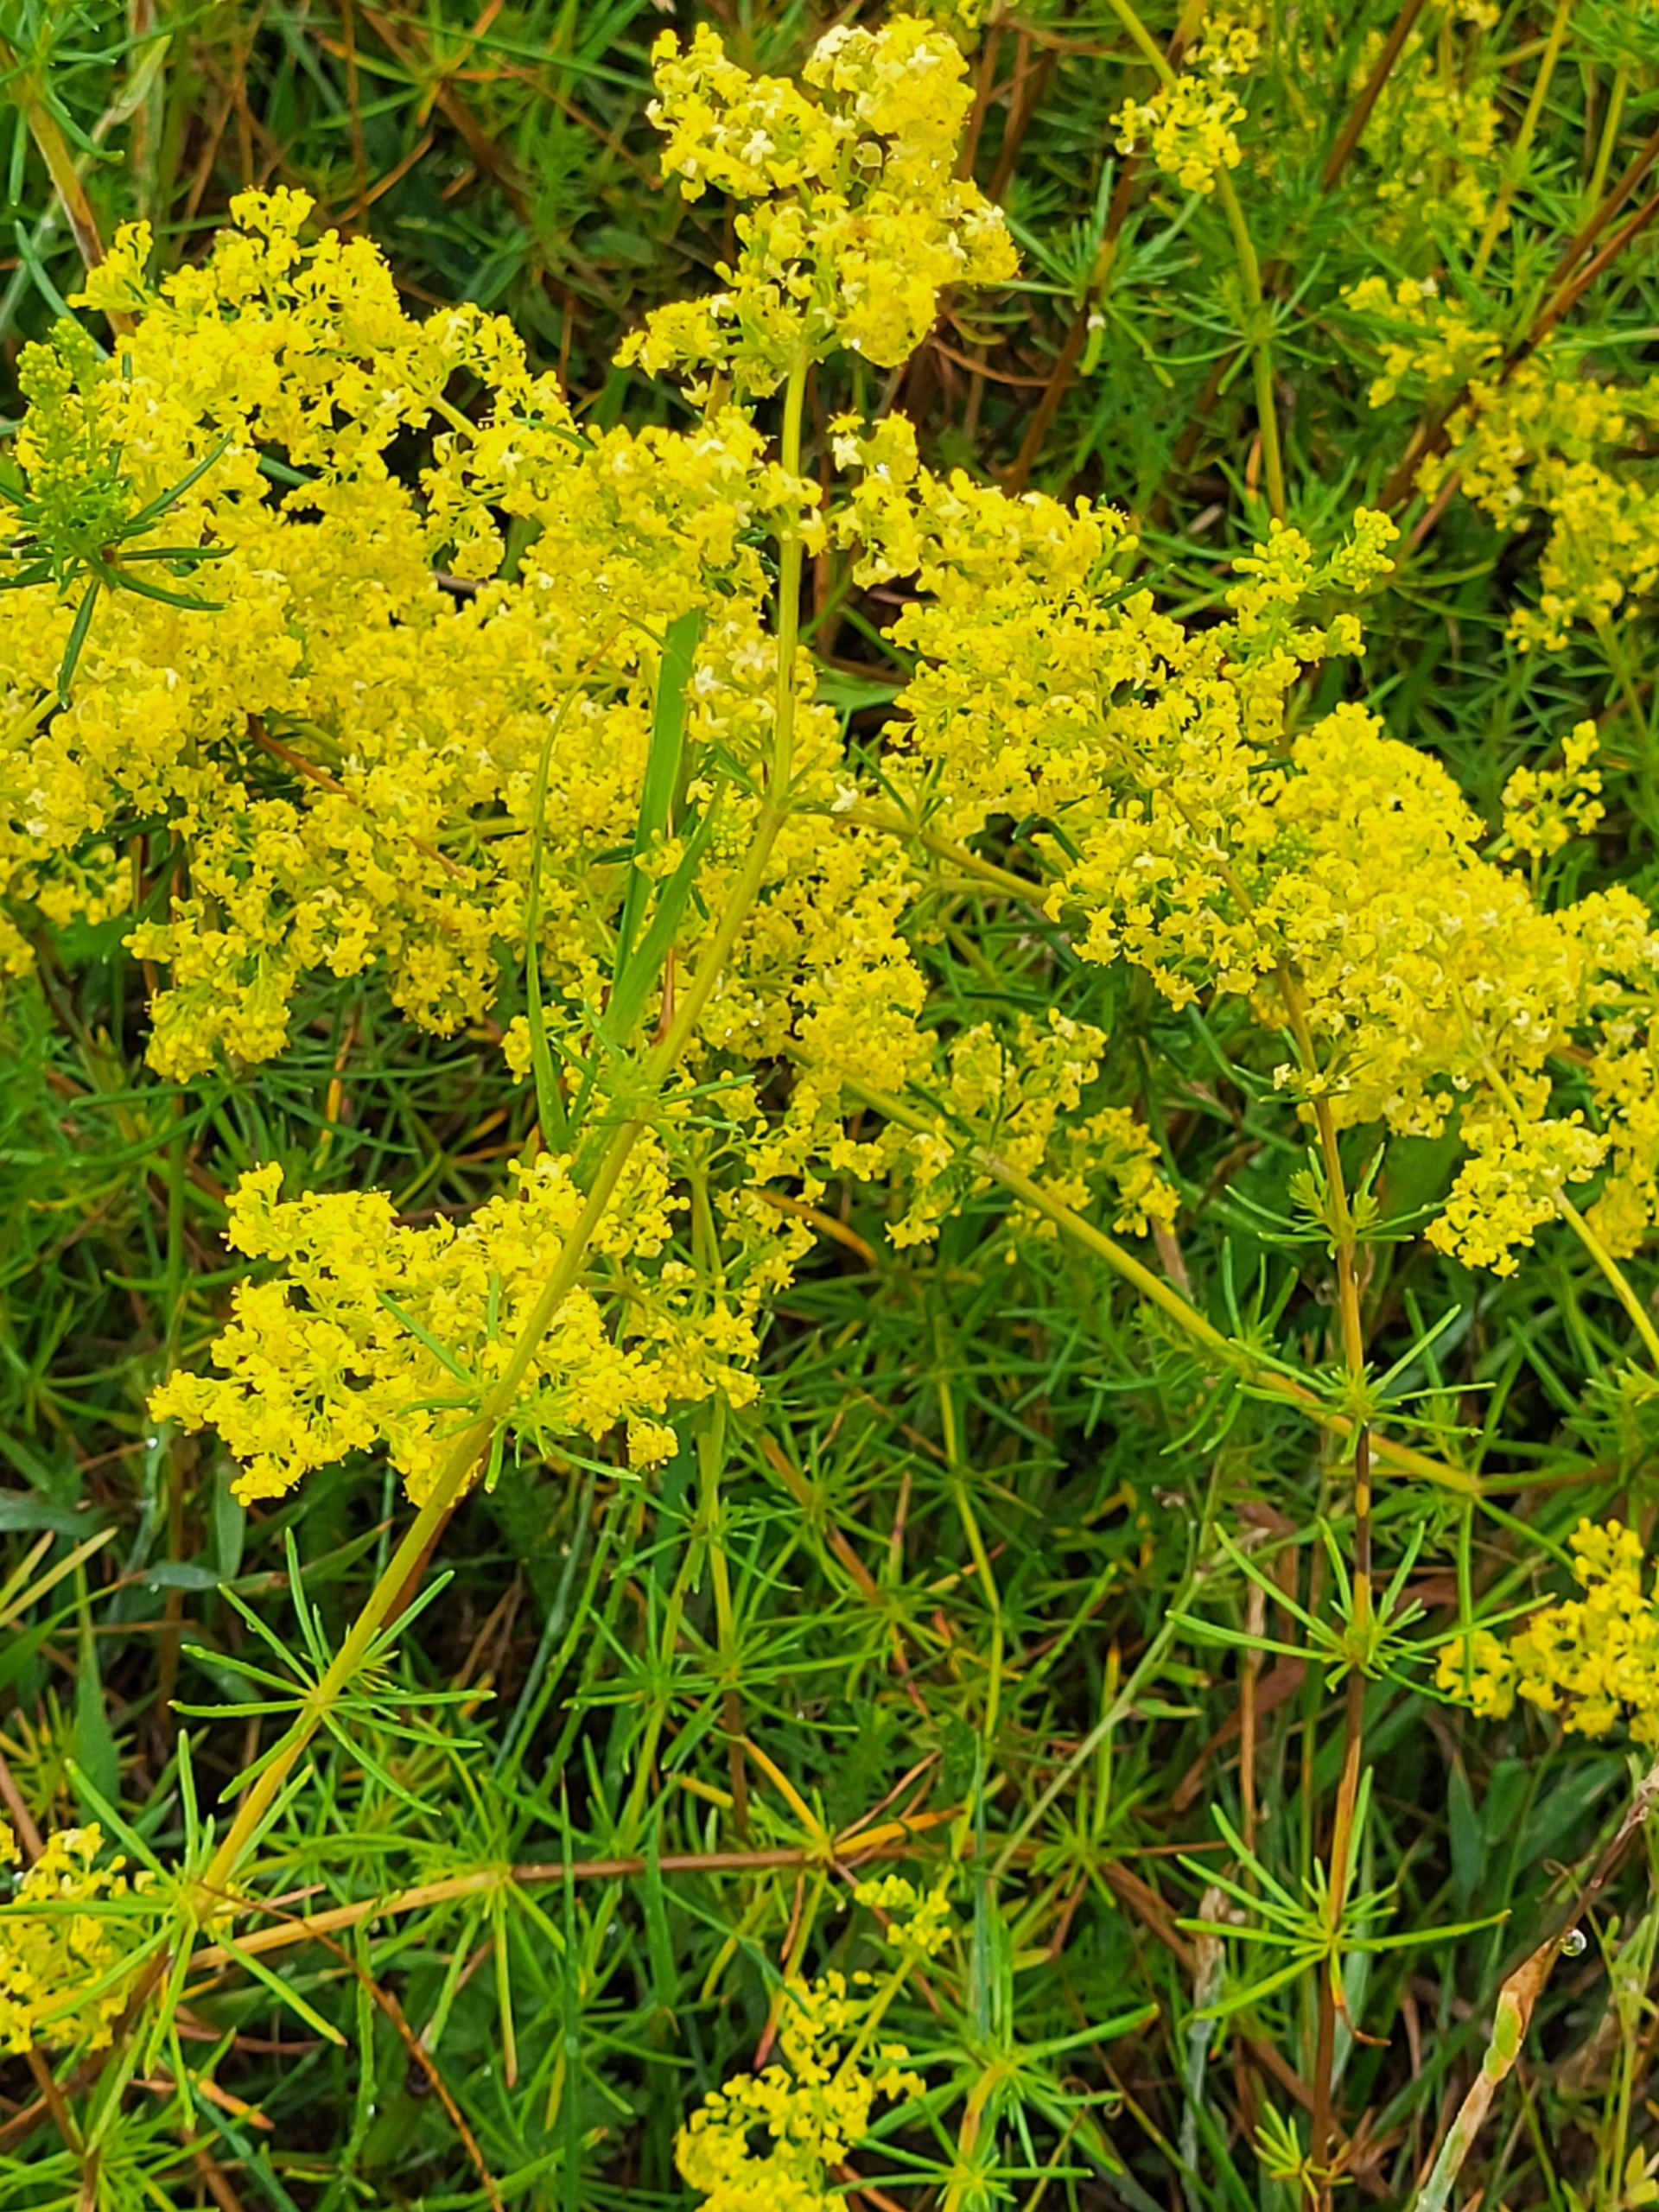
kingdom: Plantae
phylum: Tracheophyta
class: Magnoliopsida
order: Gentianales
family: Rubiaceae
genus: Galium
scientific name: Galium verum
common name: Gul snerre
